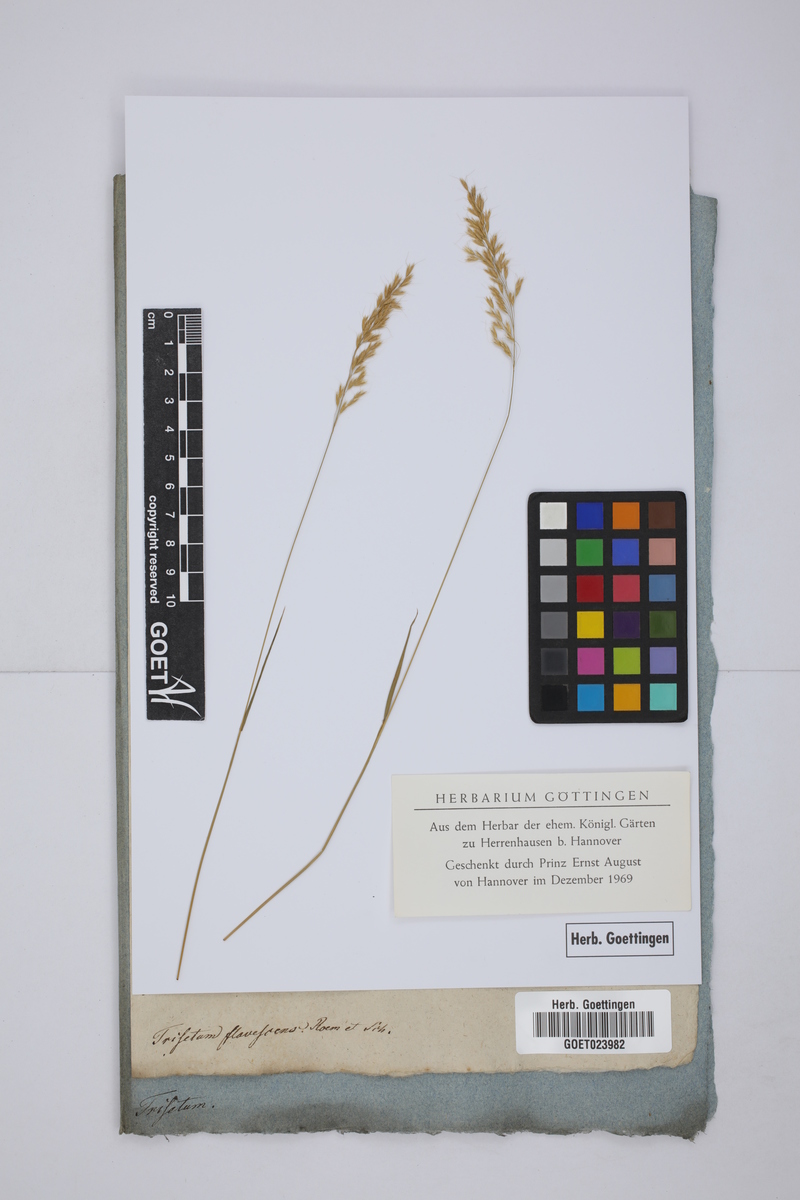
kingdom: Plantae
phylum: Tracheophyta
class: Liliopsida
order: Poales
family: Poaceae
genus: Trisetum
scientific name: Trisetum
